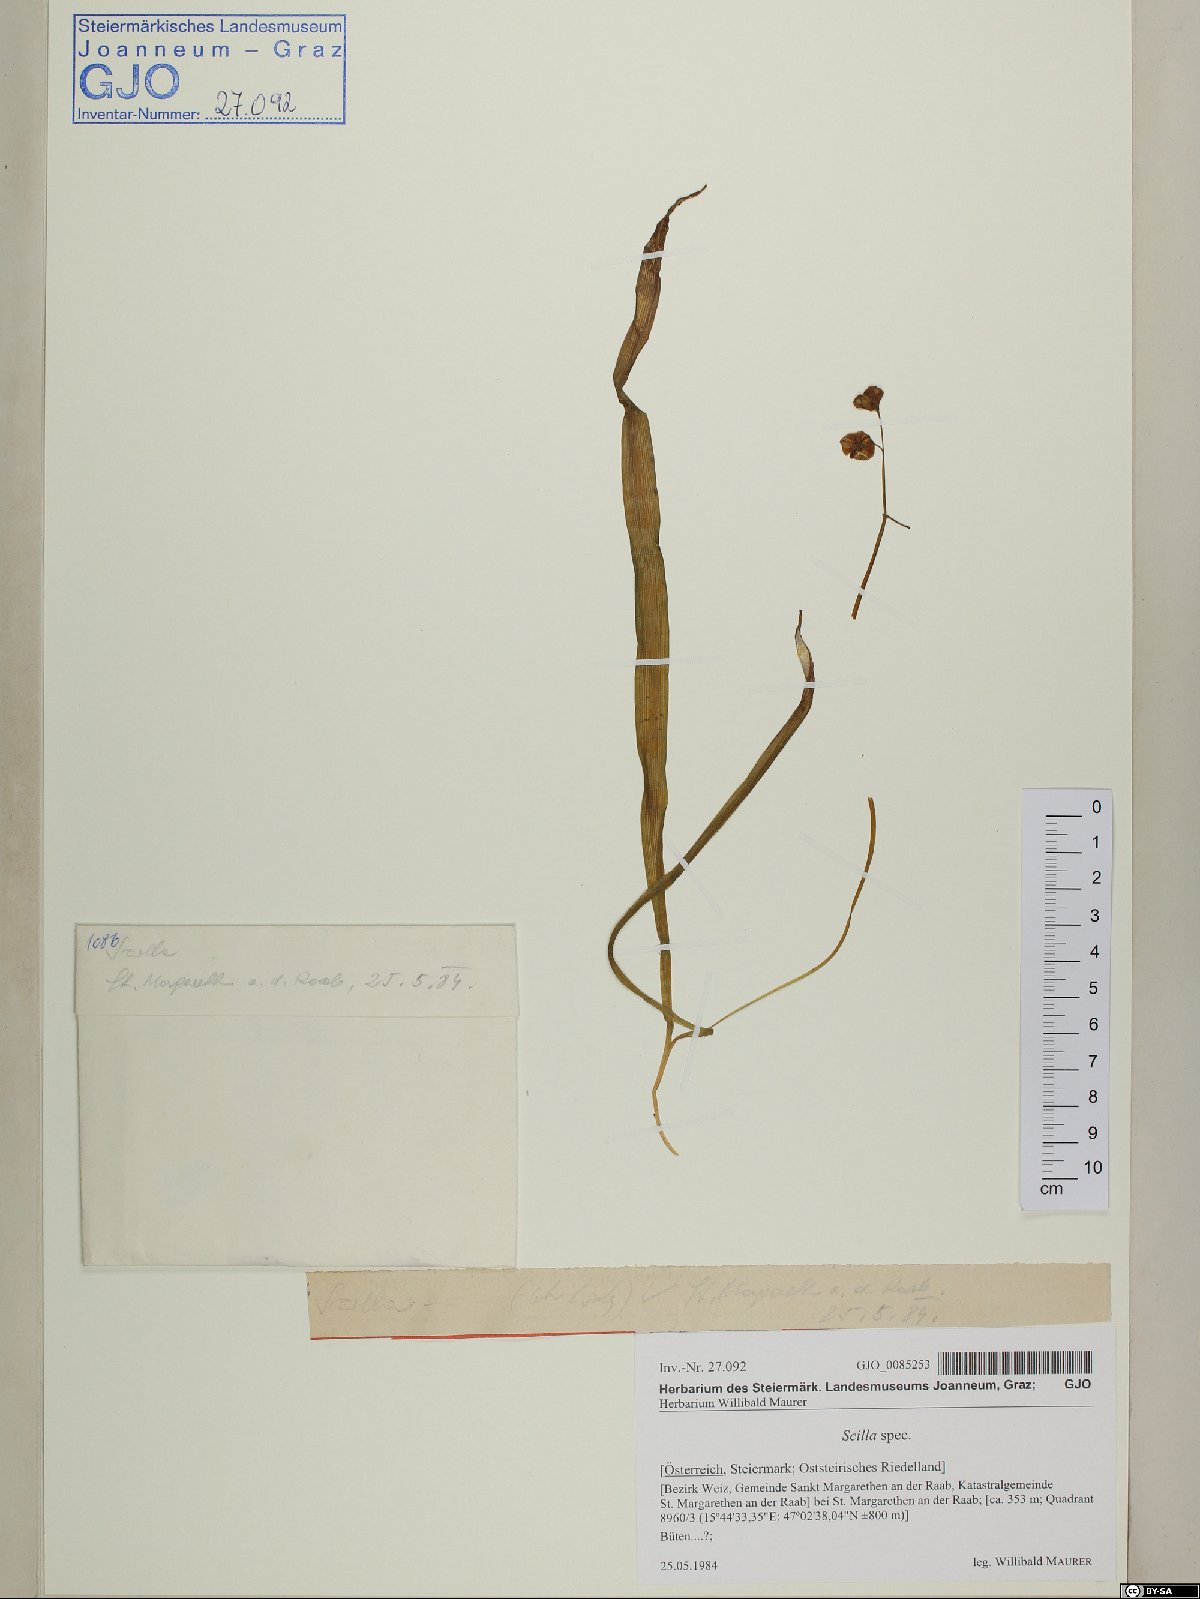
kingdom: Plantae
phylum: Tracheophyta
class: Liliopsida
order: Asparagales
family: Asparagaceae
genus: Scilla
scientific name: Scilla
